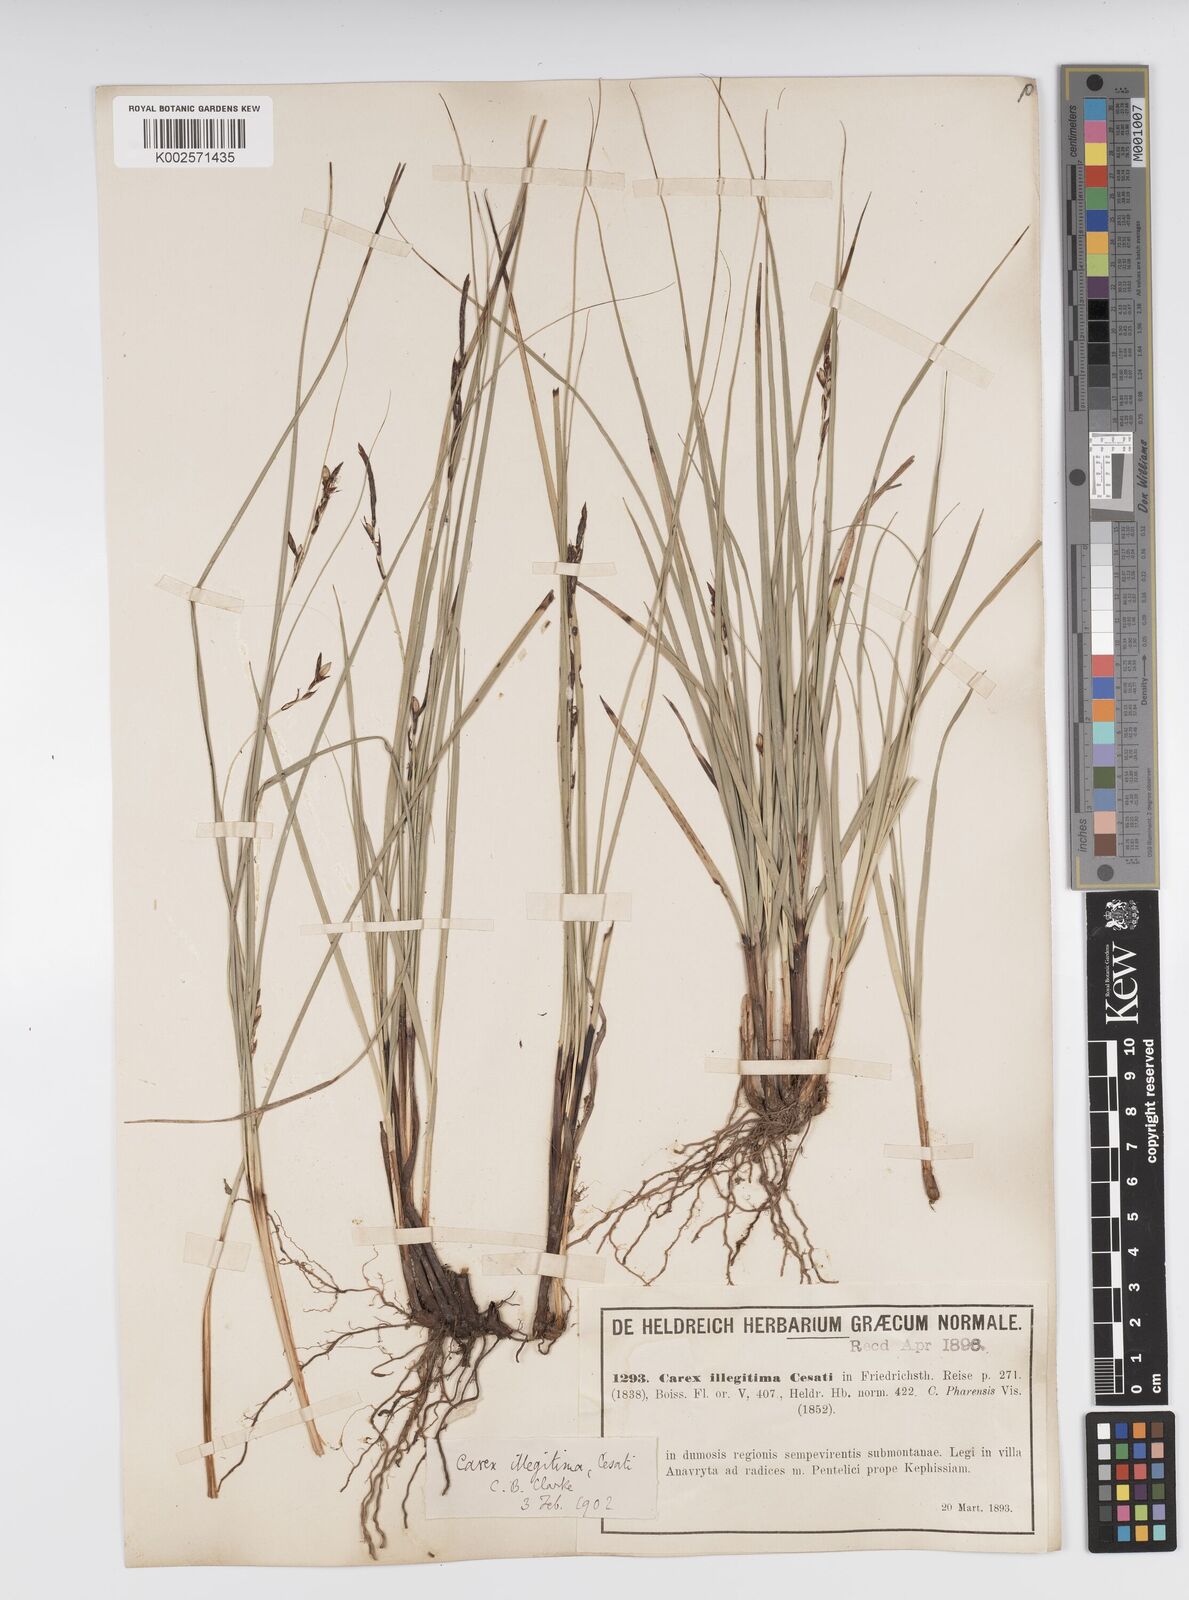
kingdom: Plantae
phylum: Tracheophyta
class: Liliopsida
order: Poales
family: Cyperaceae
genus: Carex
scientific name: Carex illegitima
